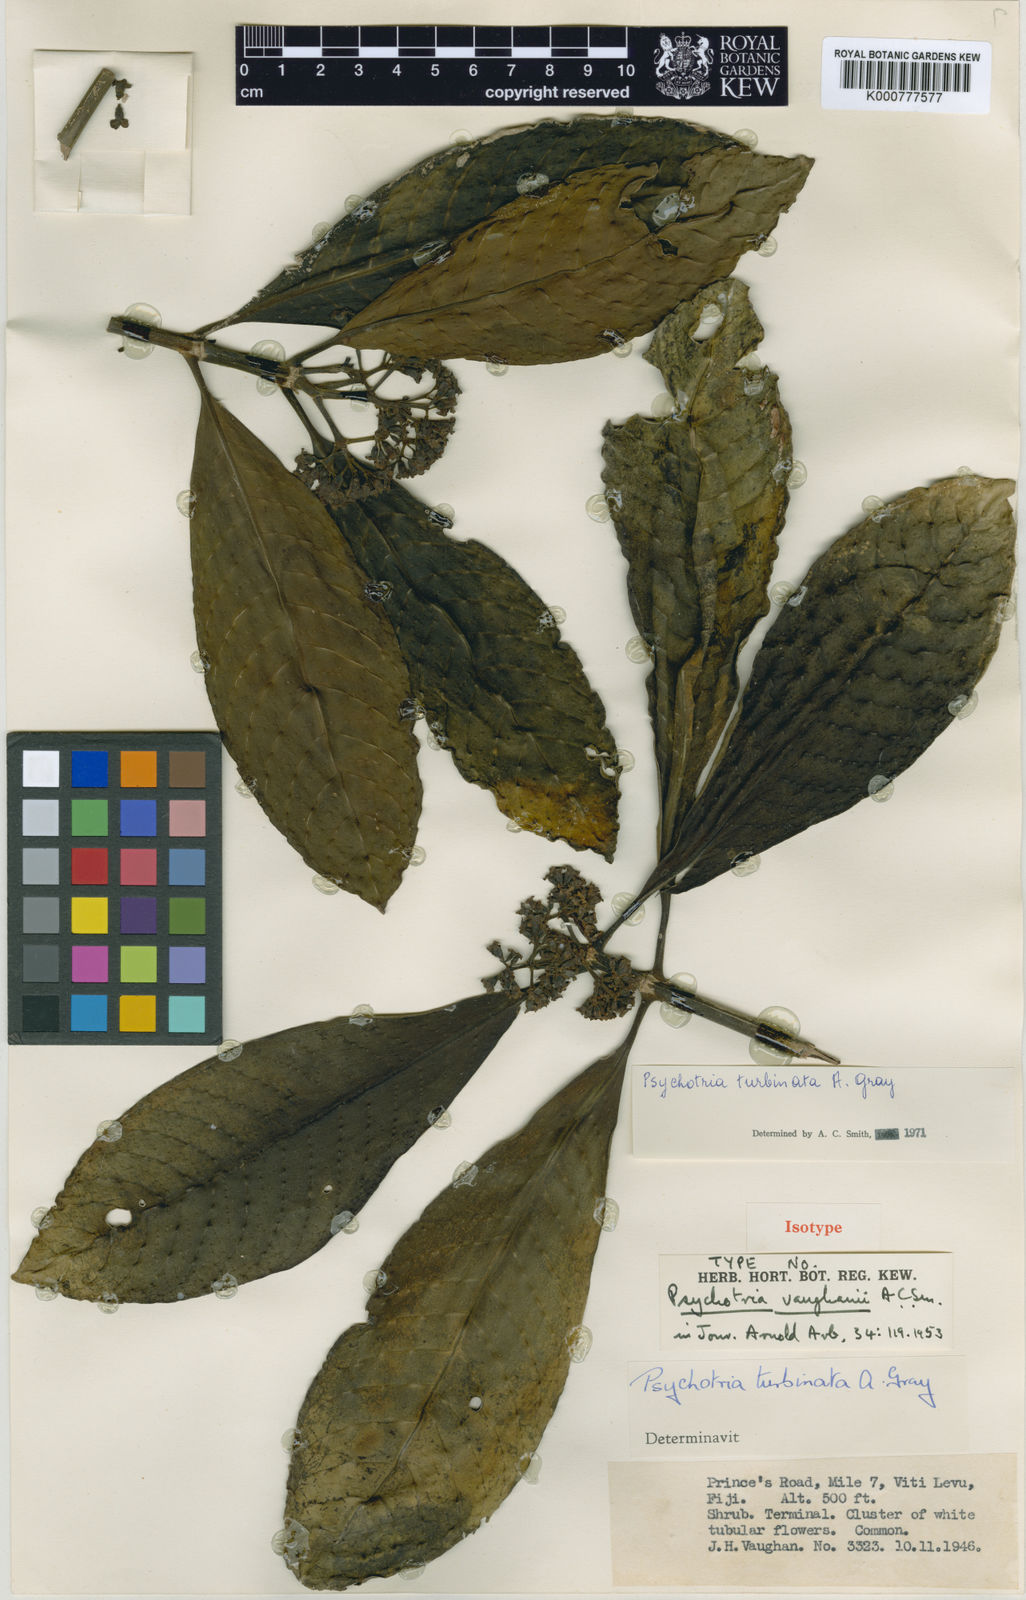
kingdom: Plantae
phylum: Tracheophyta
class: Magnoliopsida
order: Gentianales
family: Rubiaceae
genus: Psychotria
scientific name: Psychotria turbinata
